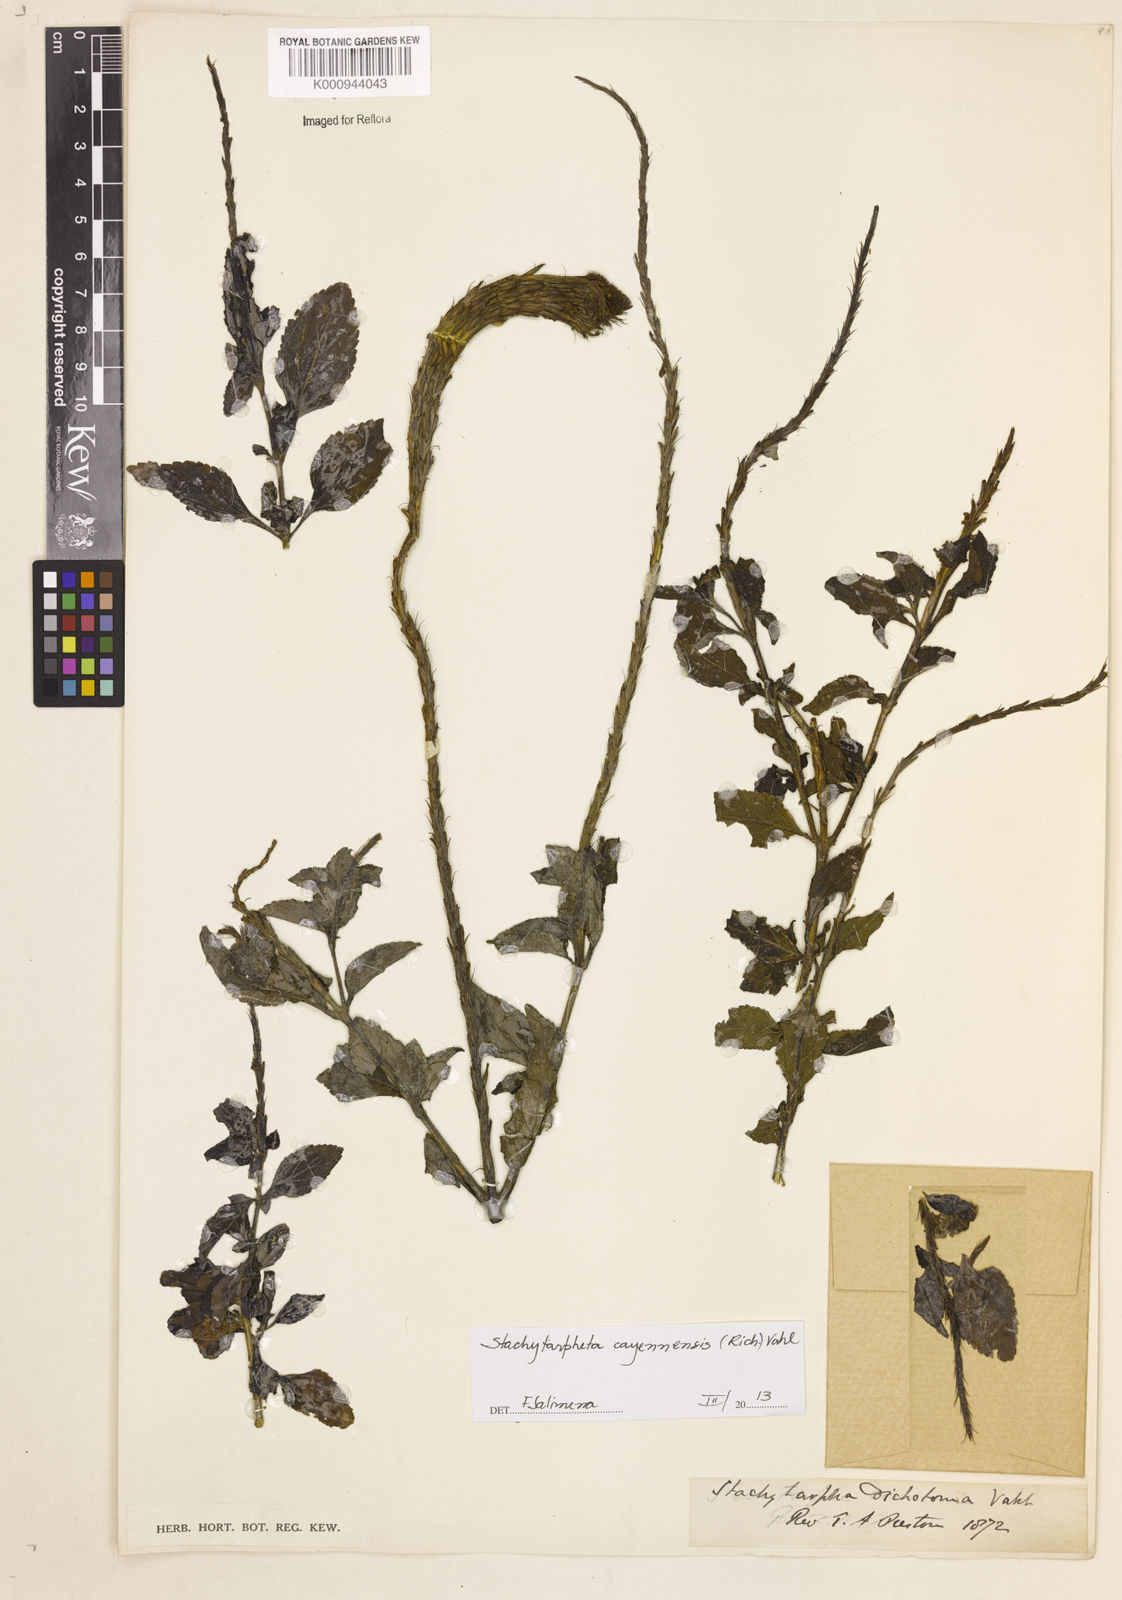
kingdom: Plantae
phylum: Tracheophyta
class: Magnoliopsida
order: Lamiales
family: Verbenaceae
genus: Aloysia
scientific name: Aloysia
